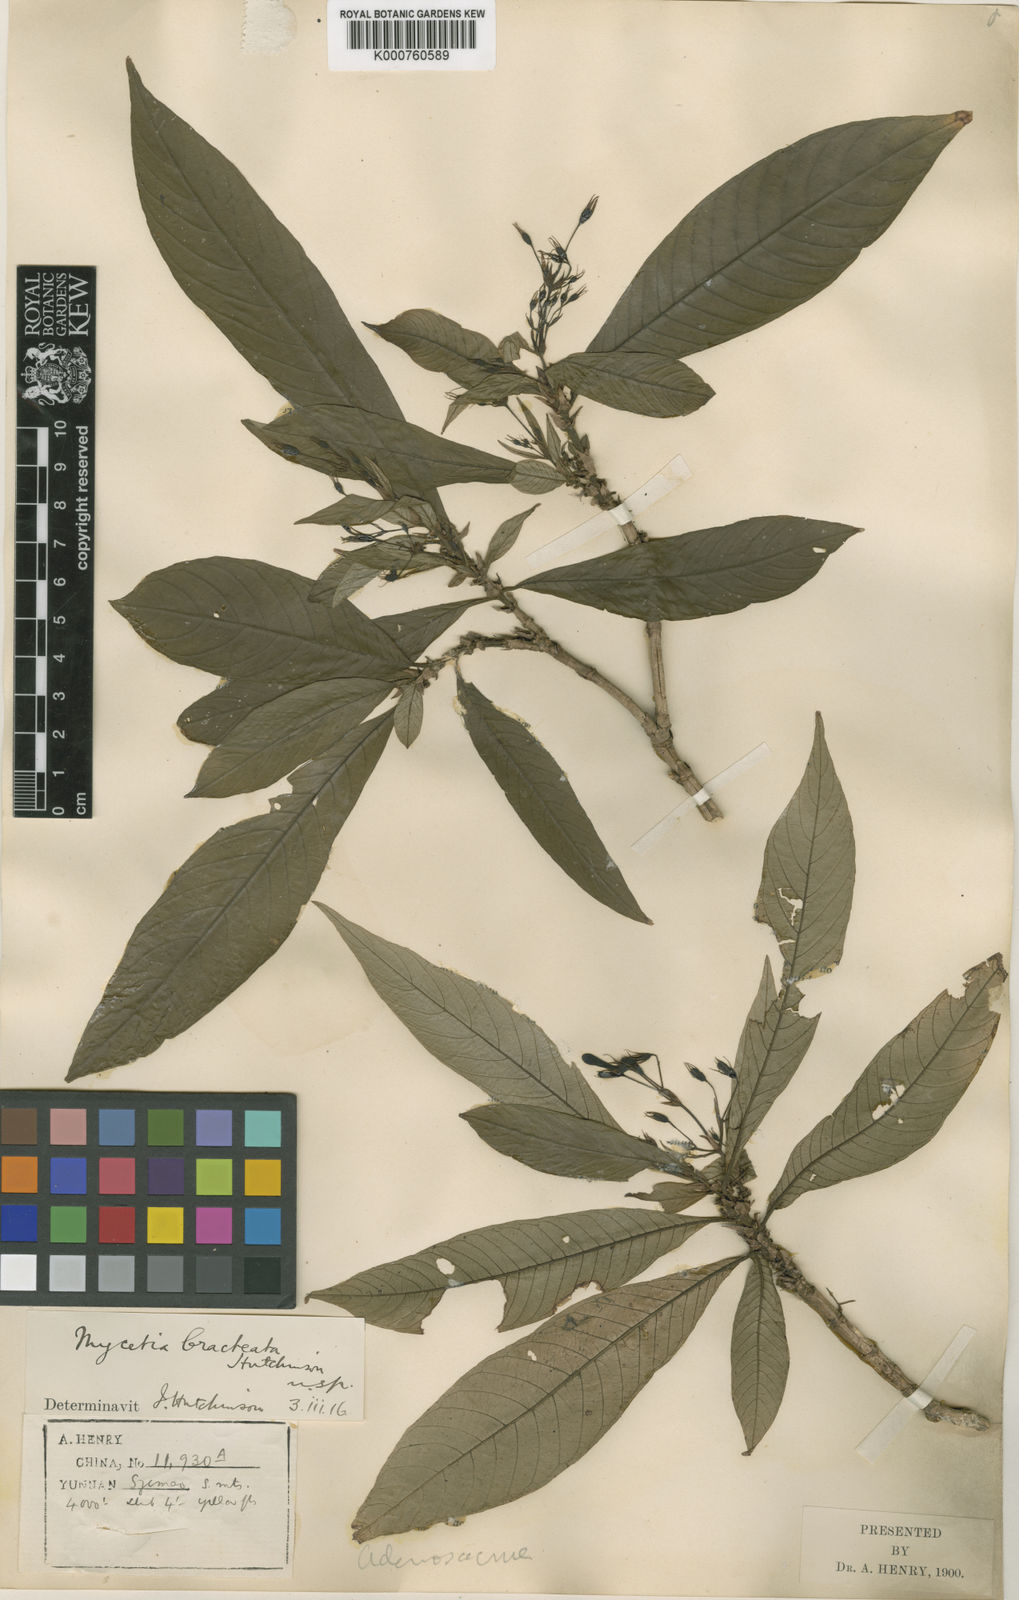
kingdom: Plantae
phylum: Tracheophyta
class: Magnoliopsida
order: Gentianales
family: Rubiaceae
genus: Mycetia
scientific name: Mycetia bracteata
